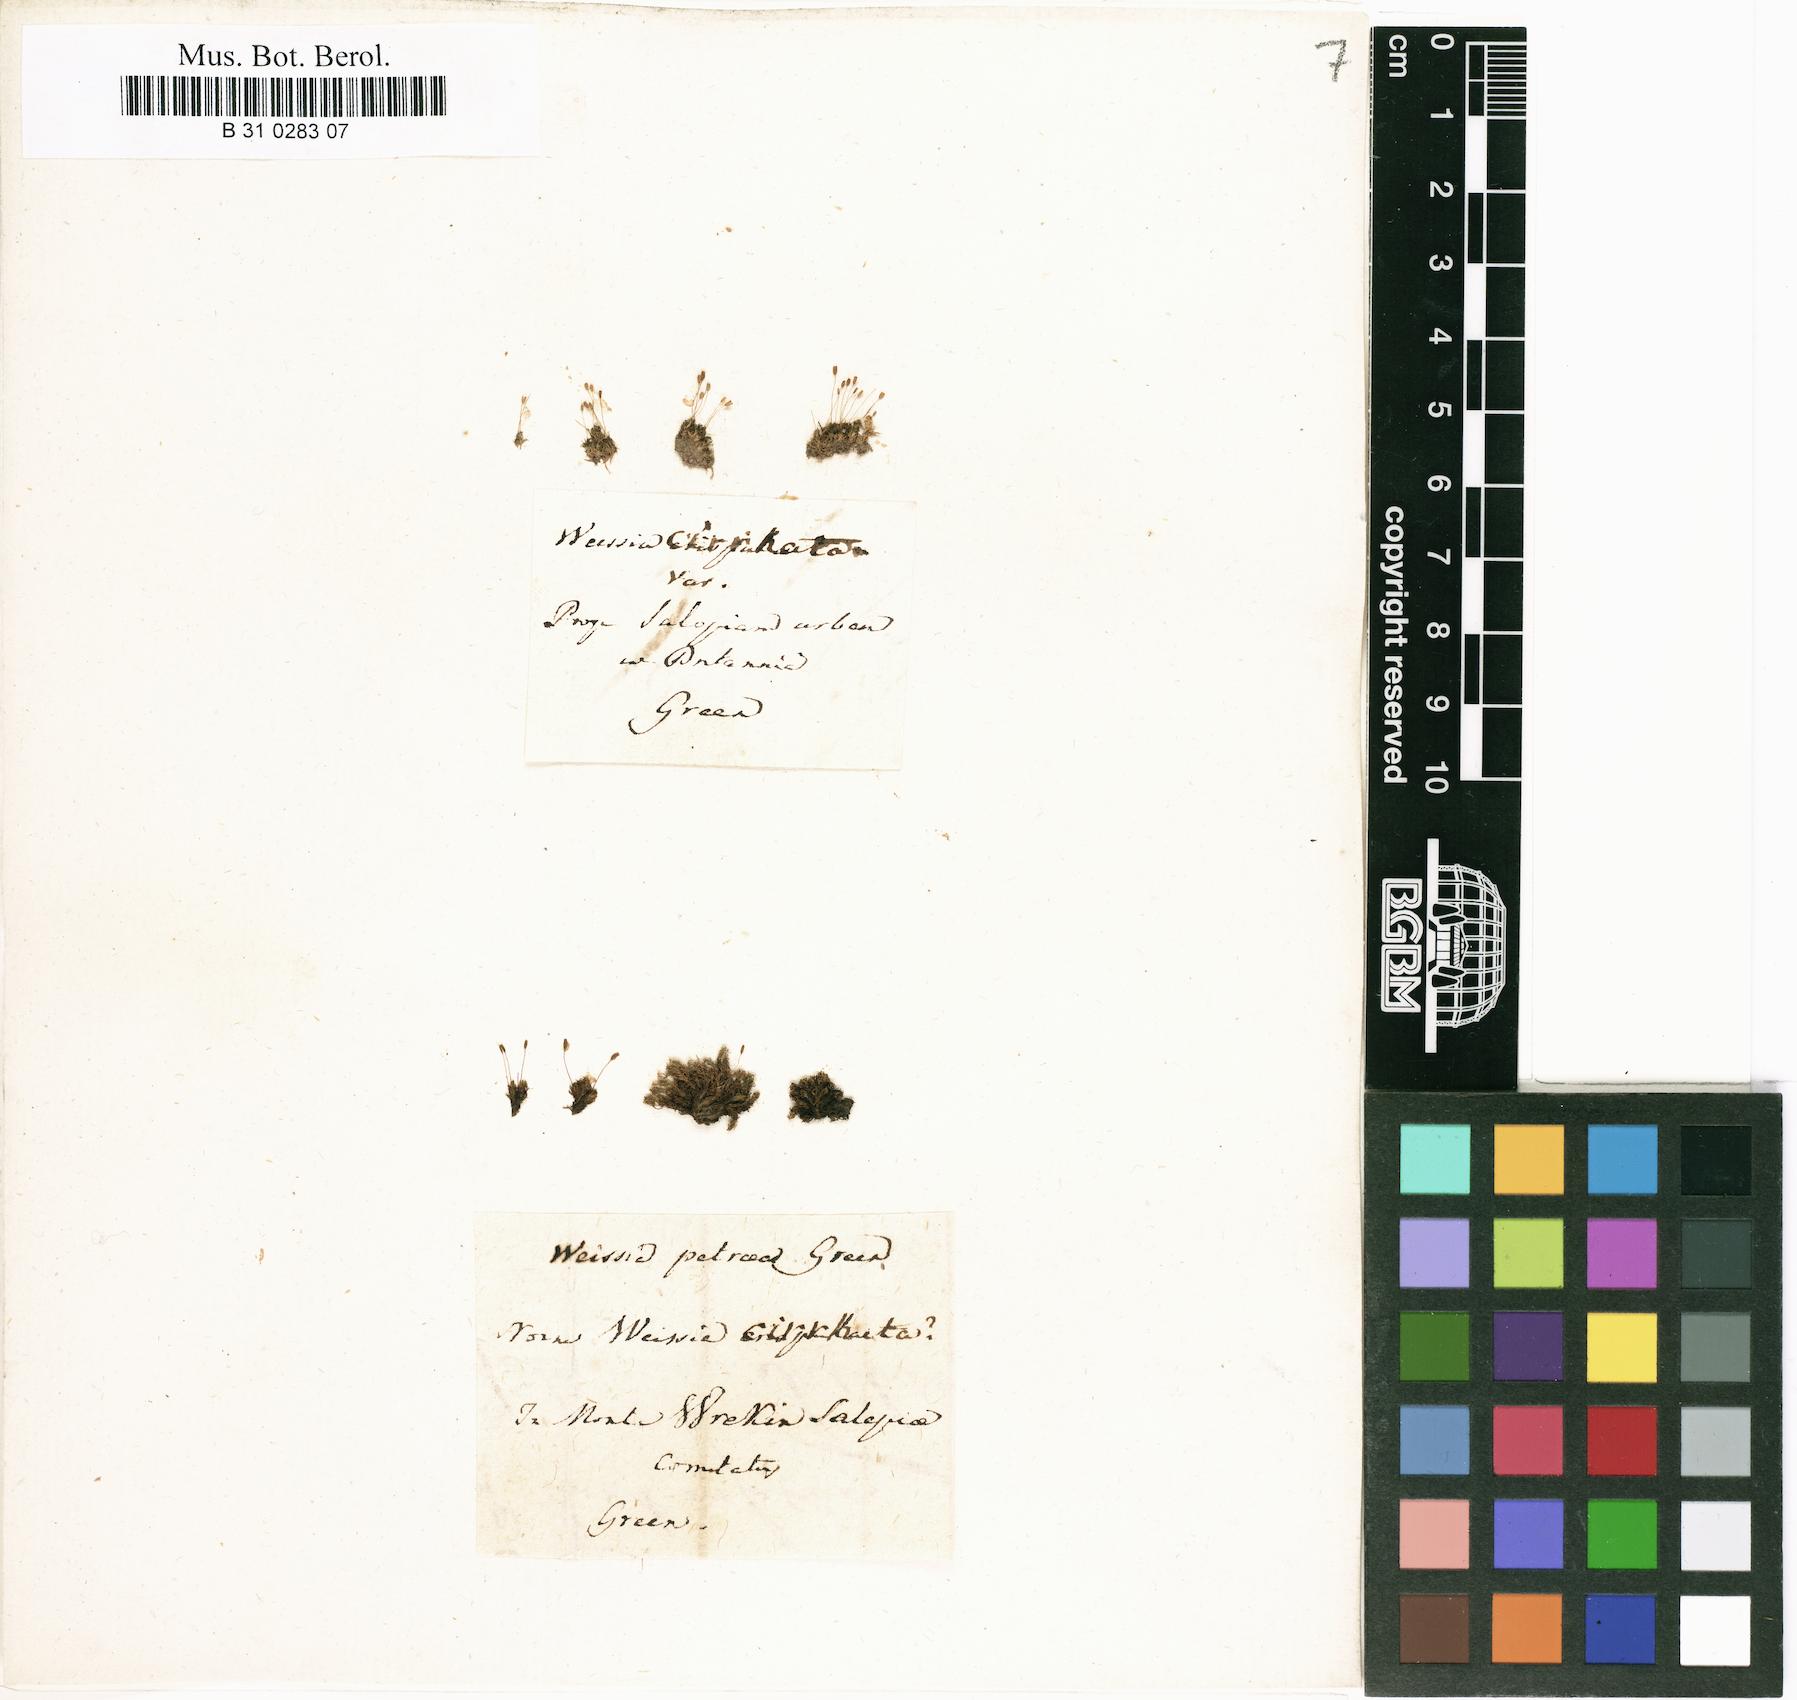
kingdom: Plantae
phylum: Bryophyta
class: Bryopsida
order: Dicranales
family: Rhabdoweisiaceae
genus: Dicranoweisia
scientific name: Dicranoweisia cirrata
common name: Common pincushion
